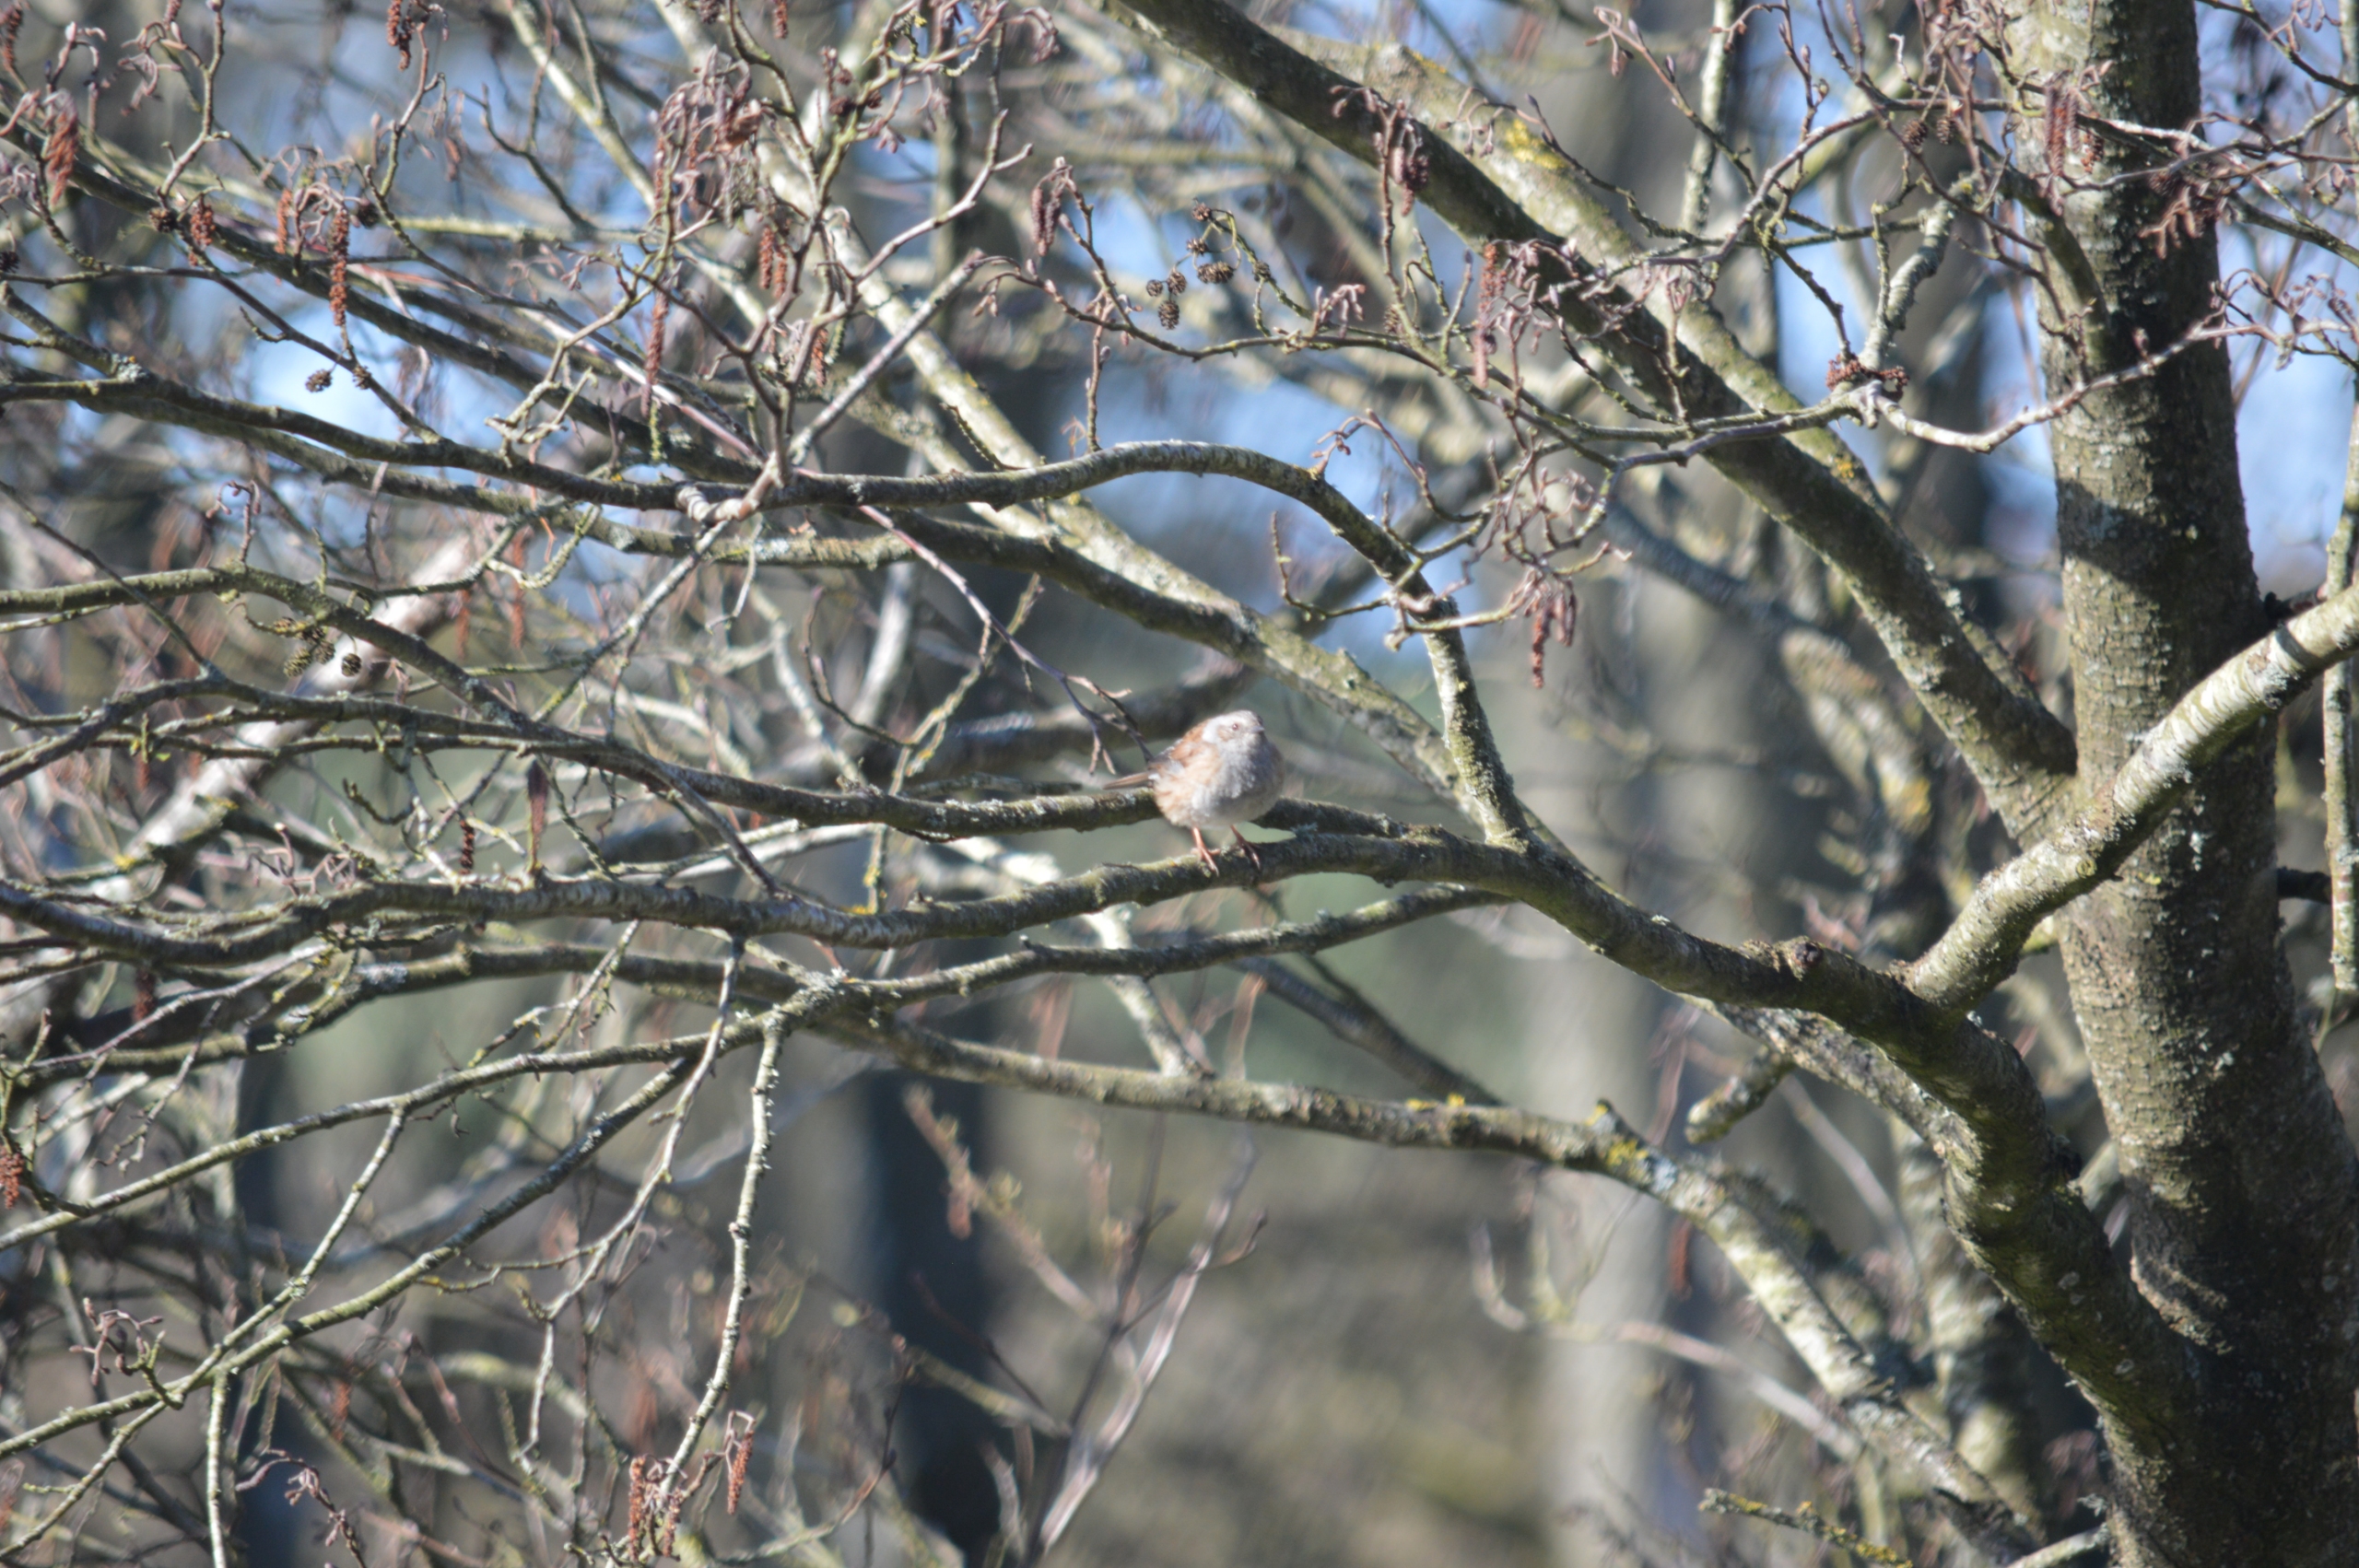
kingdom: Animalia
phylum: Chordata
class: Aves
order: Passeriformes
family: Prunellidae
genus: Prunella
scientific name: Prunella modularis
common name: Jernspurv
